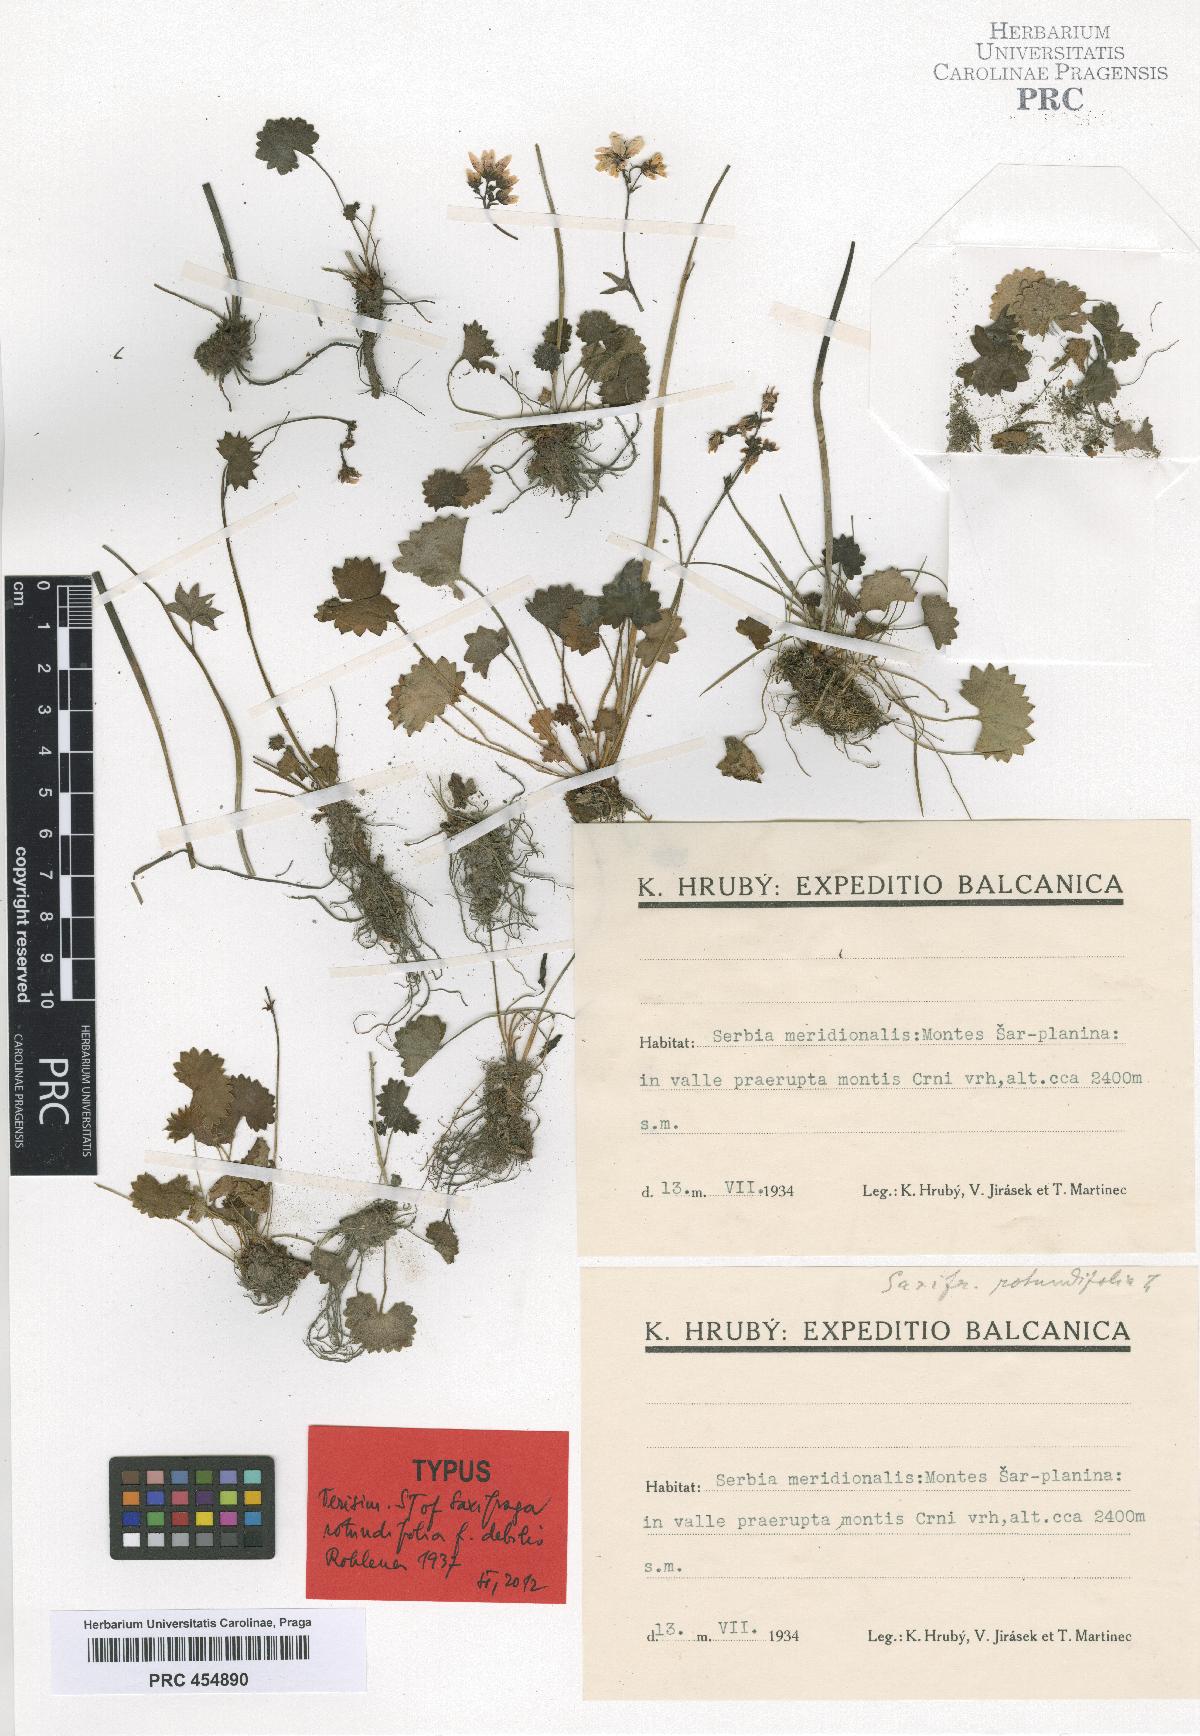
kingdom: Plantae
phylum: Tracheophyta
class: Magnoliopsida
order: Saxifragales
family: Saxifragaceae
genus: Saxifraga
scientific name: Saxifraga rotundifolia
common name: Round-leaved saxifrage
